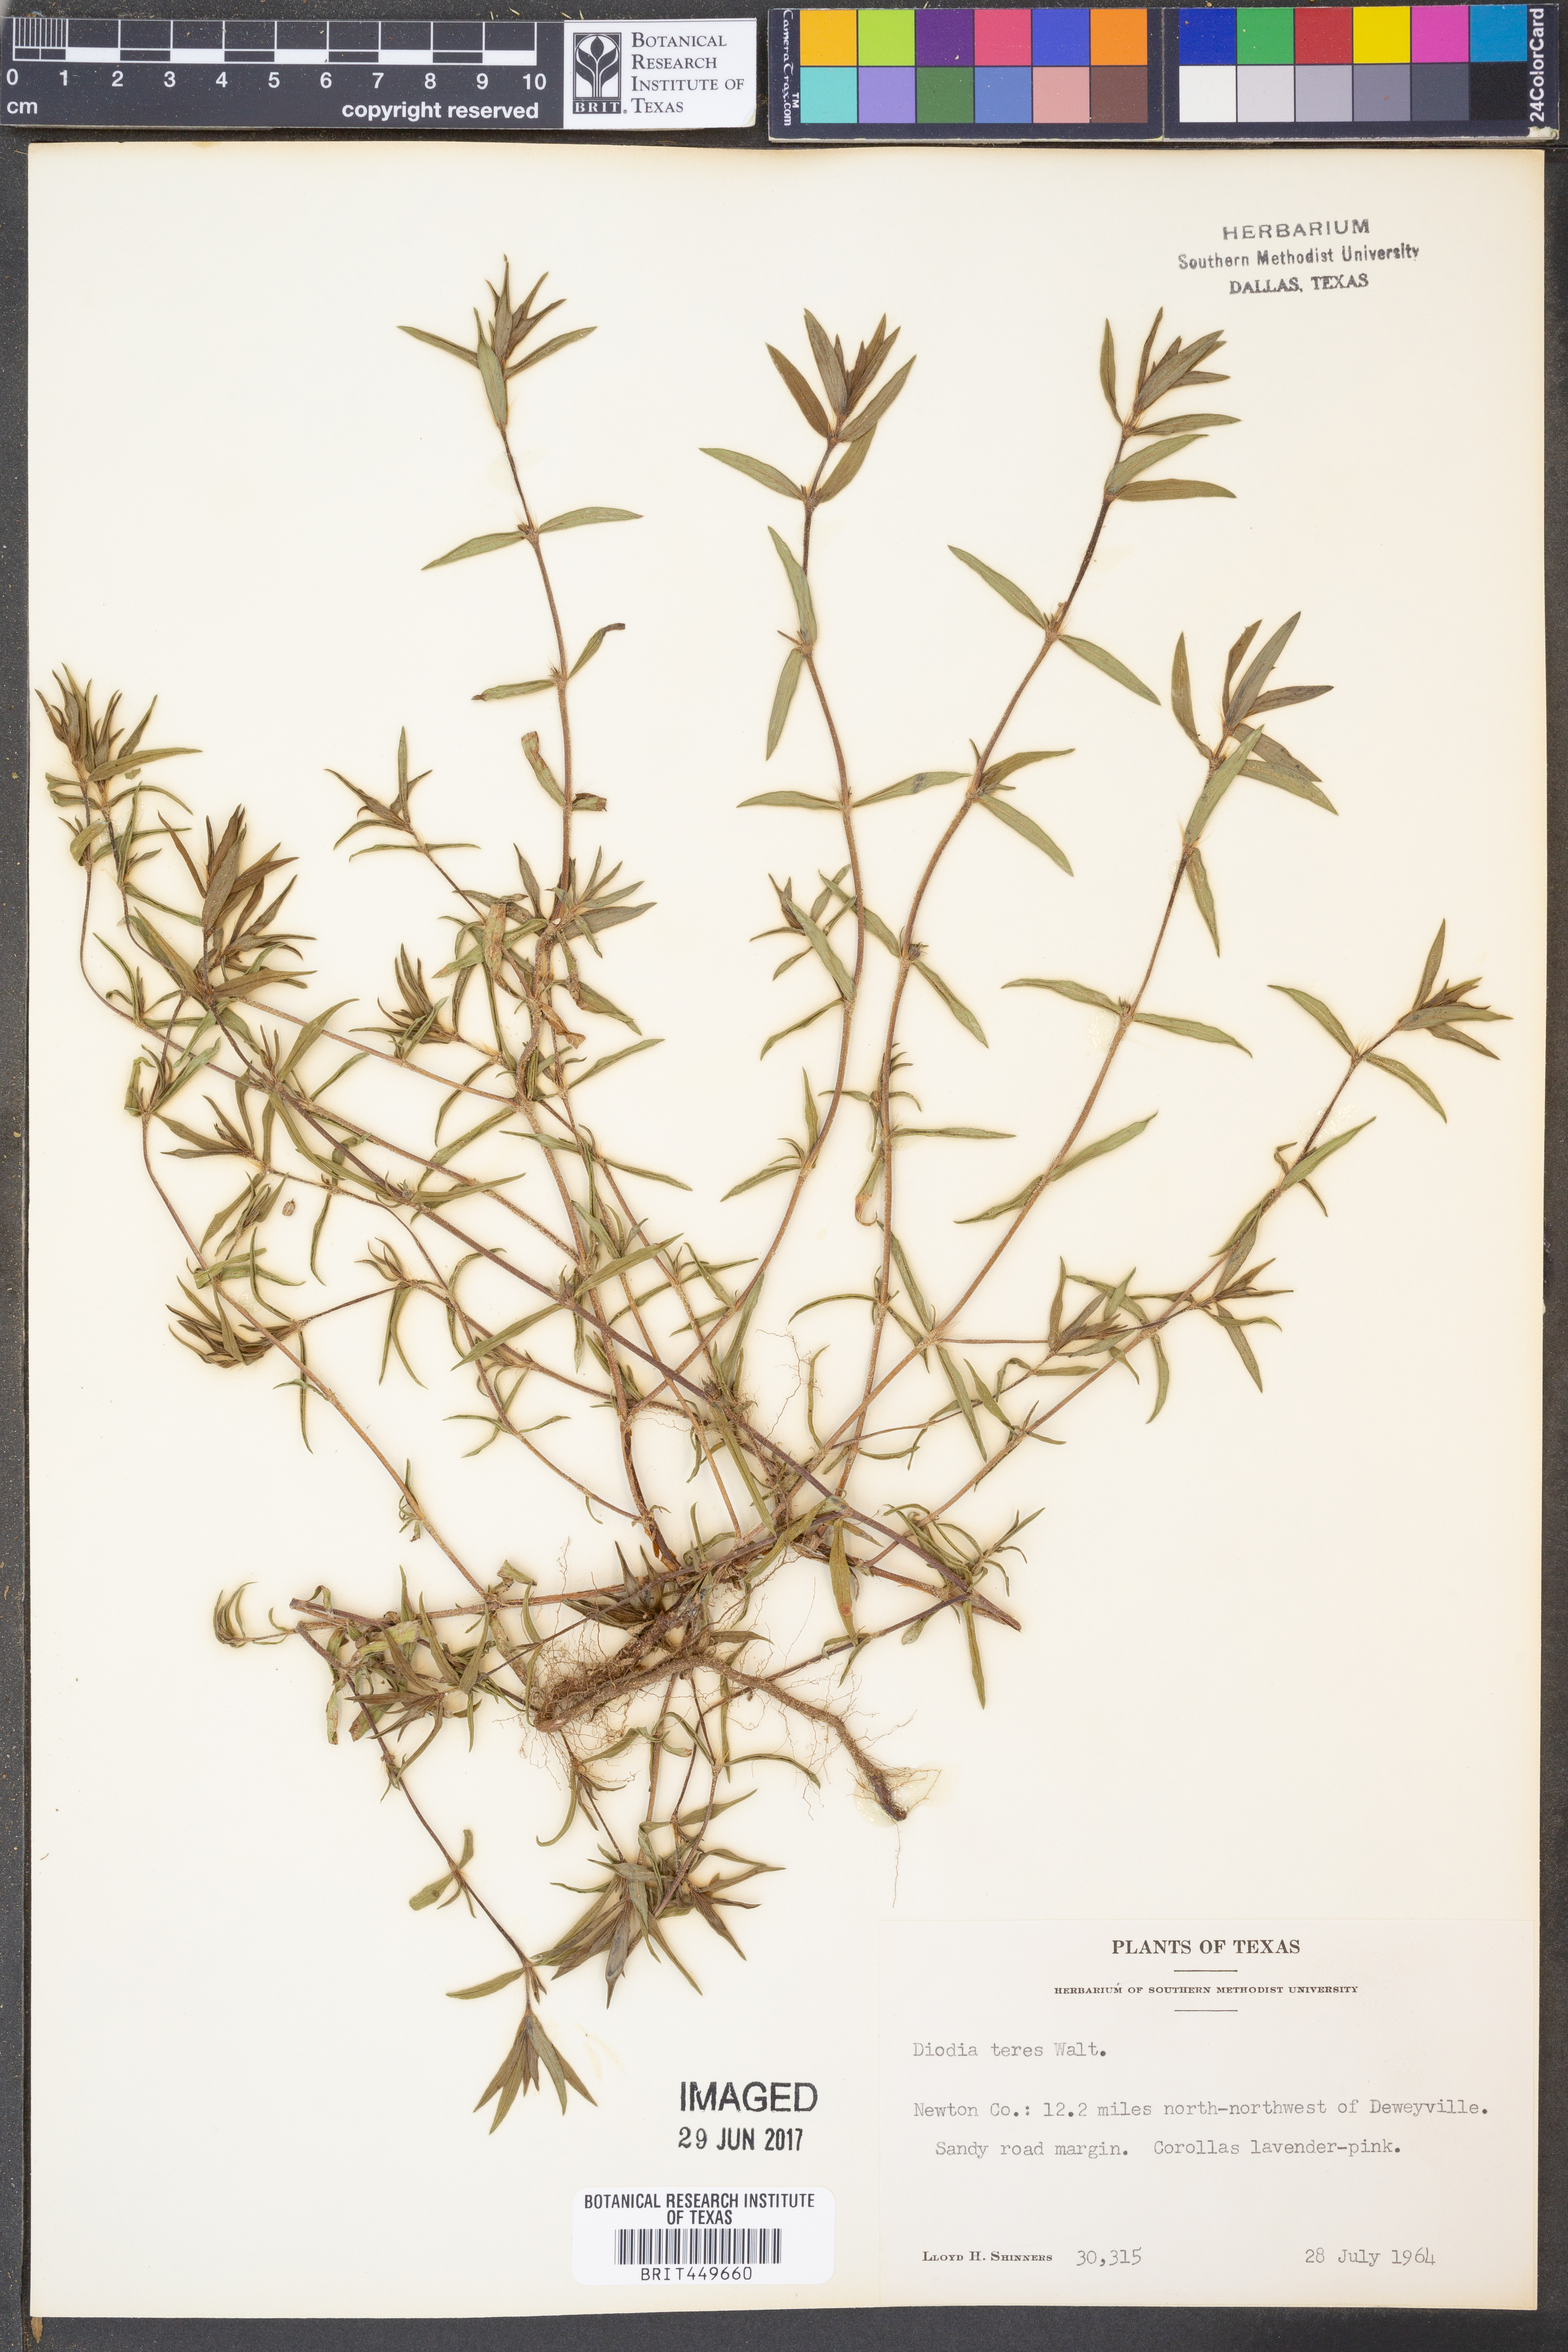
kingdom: Plantae
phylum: Tracheophyta
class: Magnoliopsida
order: Gentianales
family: Rubiaceae
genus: Hexasepalum
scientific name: Hexasepalum teres
